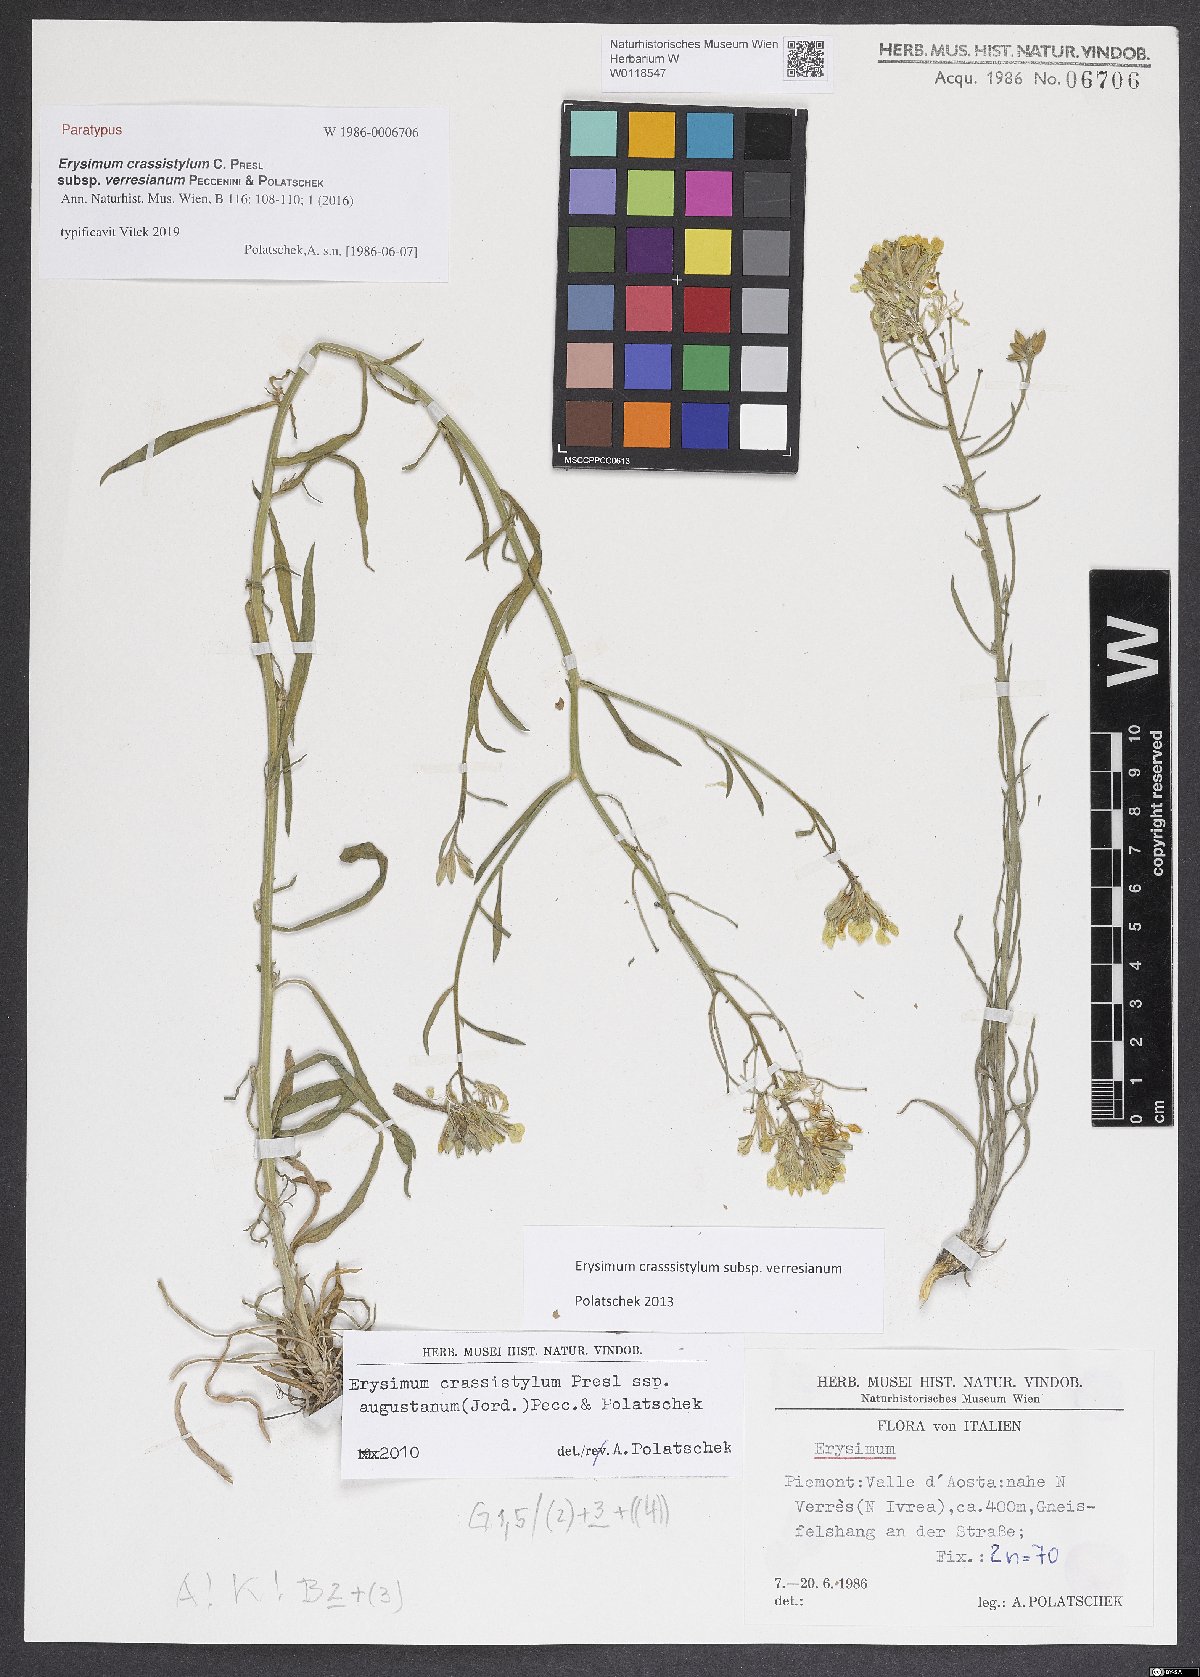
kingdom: Plantae
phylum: Tracheophyta
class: Magnoliopsida
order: Brassicales
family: Brassicaceae
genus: Erysimum
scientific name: Erysimum crassistylum
